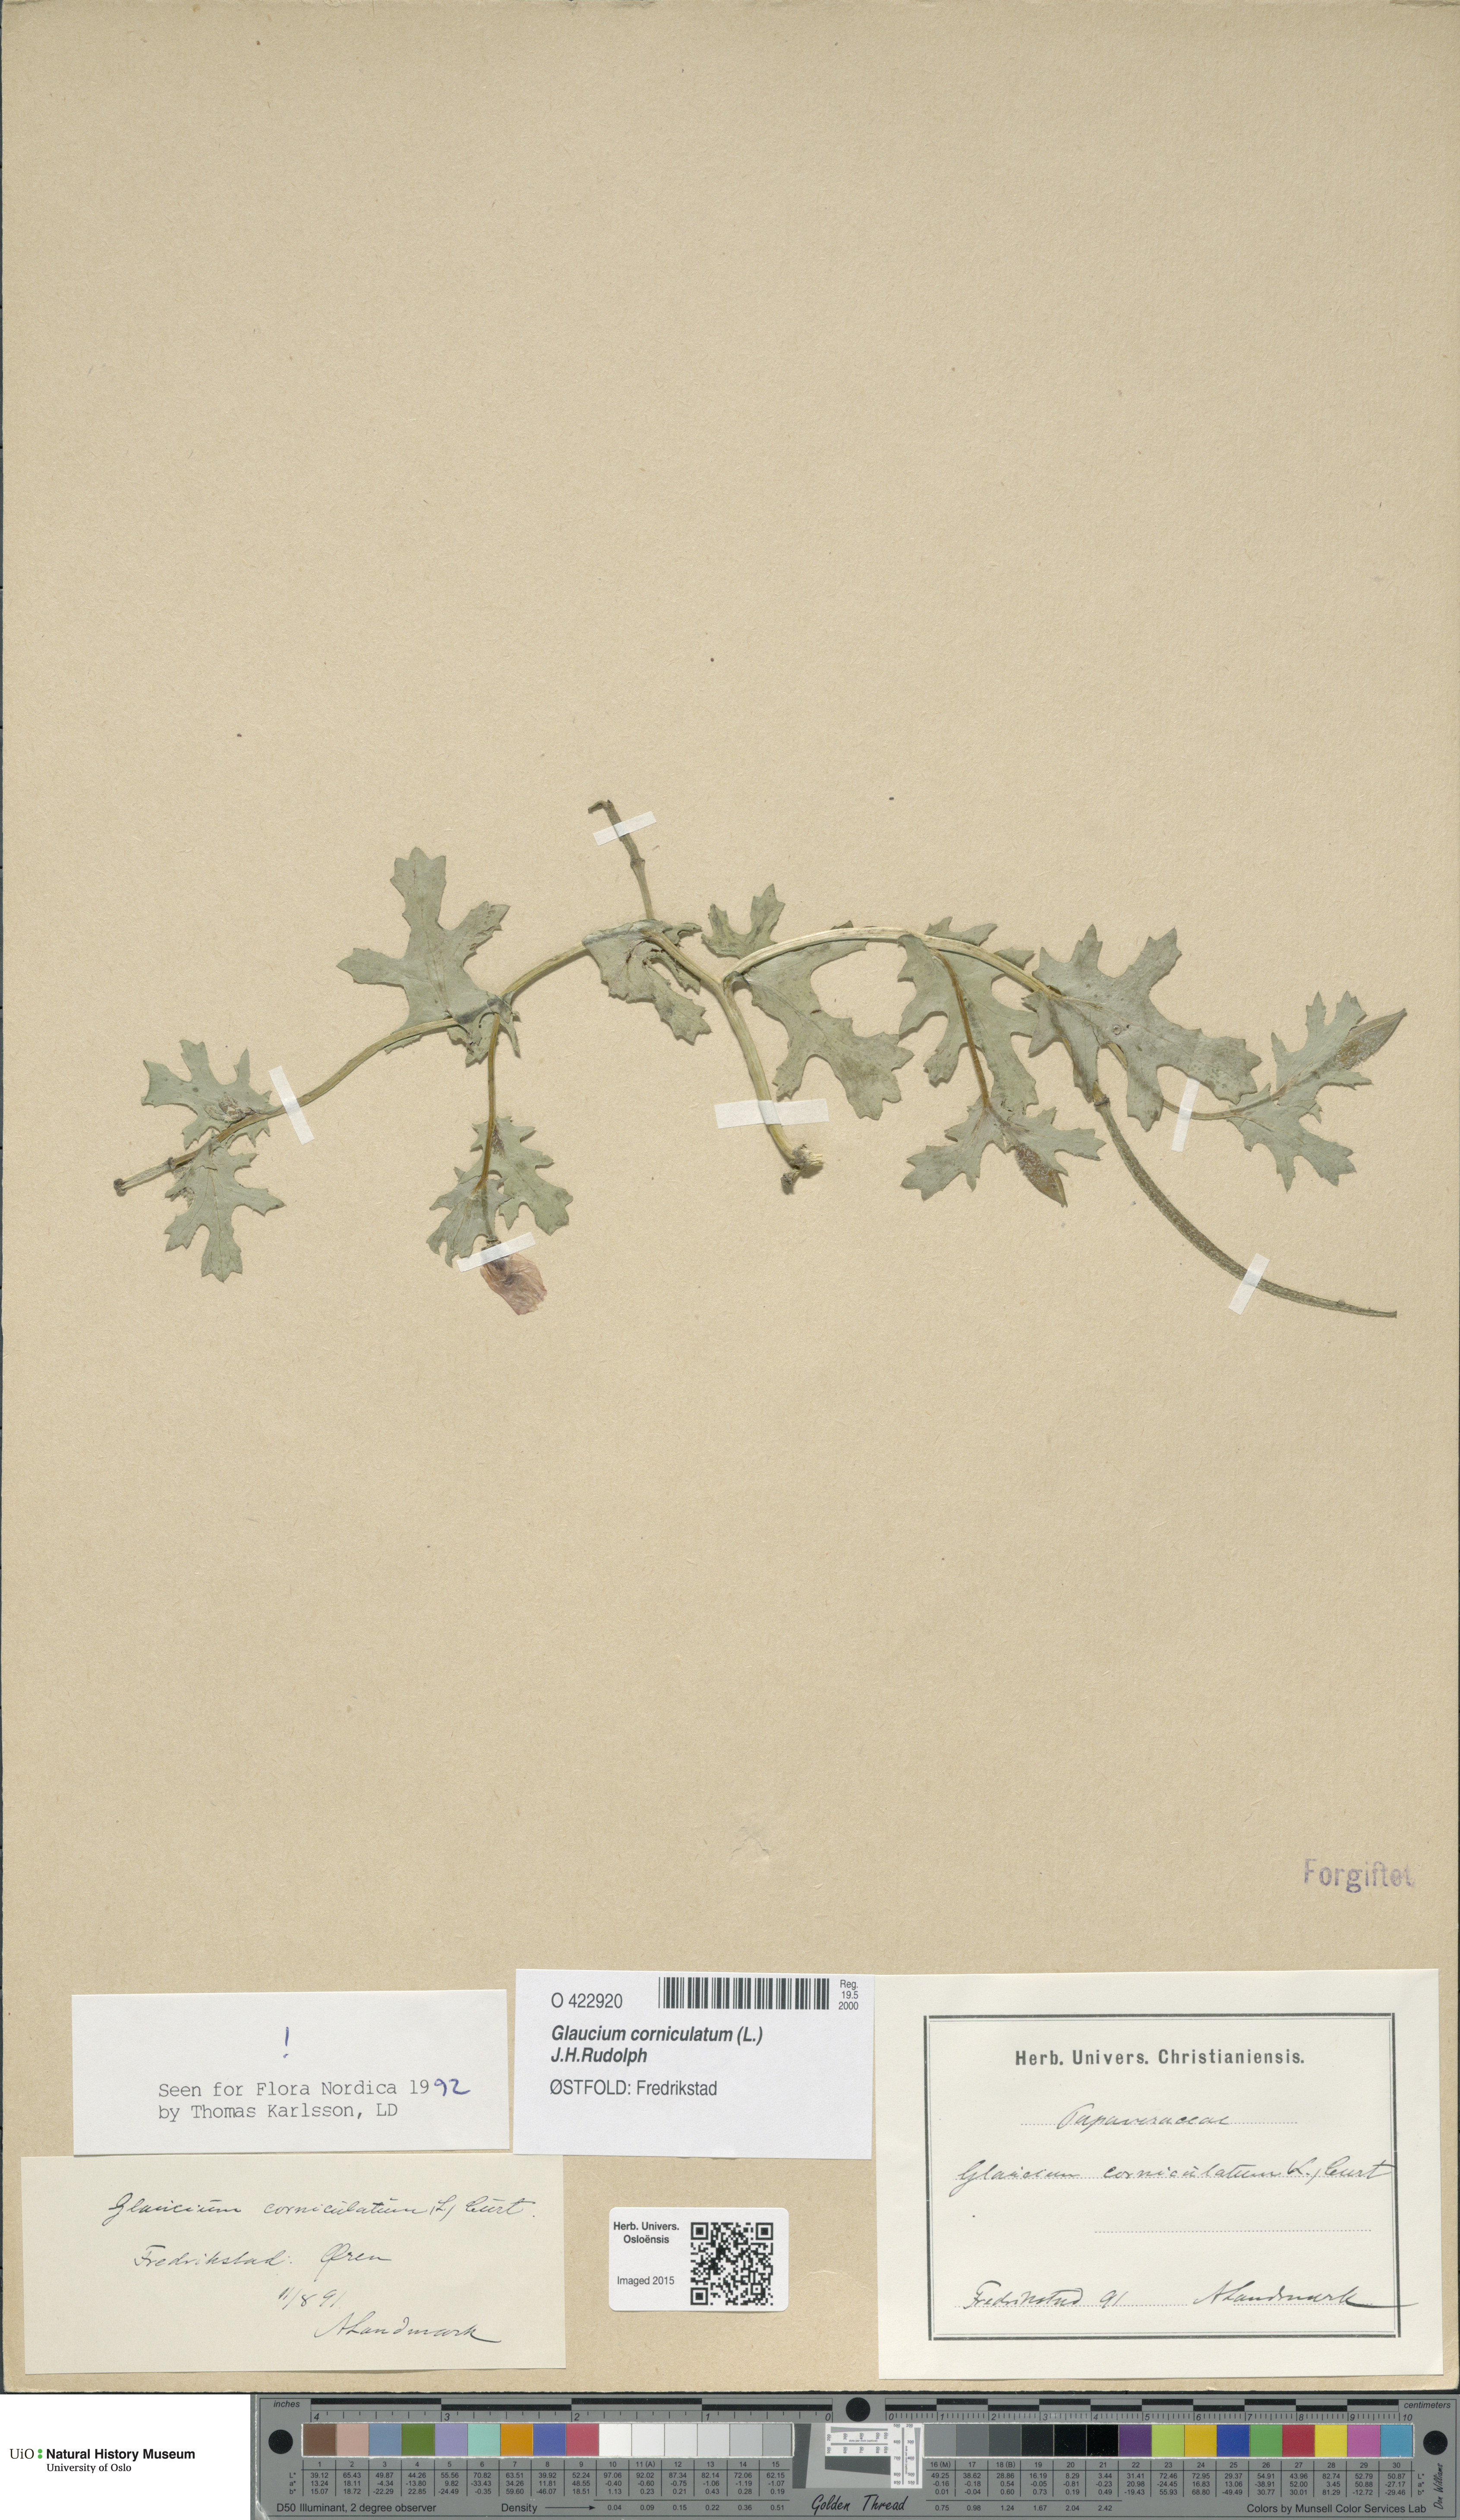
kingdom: Plantae
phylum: Tracheophyta
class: Magnoliopsida
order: Ranunculales
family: Papaveraceae
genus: Glaucium
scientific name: Glaucium corniculatum
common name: Red horned-poppy
